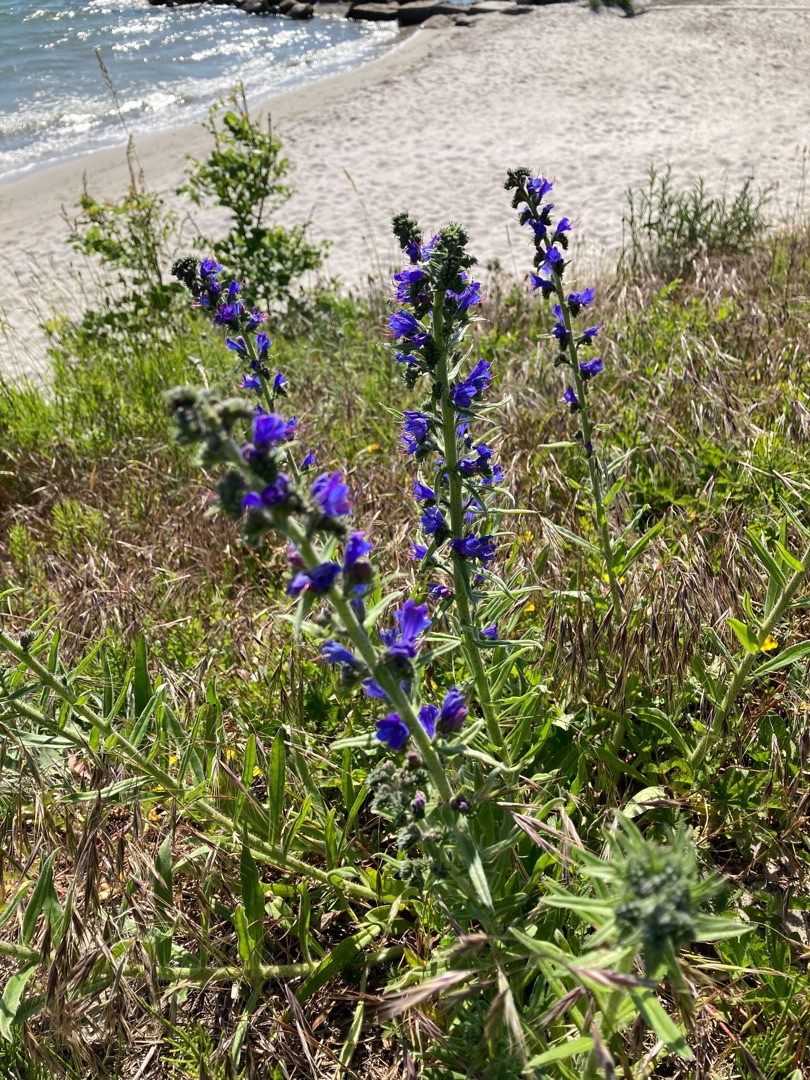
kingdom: Plantae
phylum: Tracheophyta
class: Magnoliopsida
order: Boraginales
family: Boraginaceae
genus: Echium
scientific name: Echium vulgare
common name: Slangehoved
